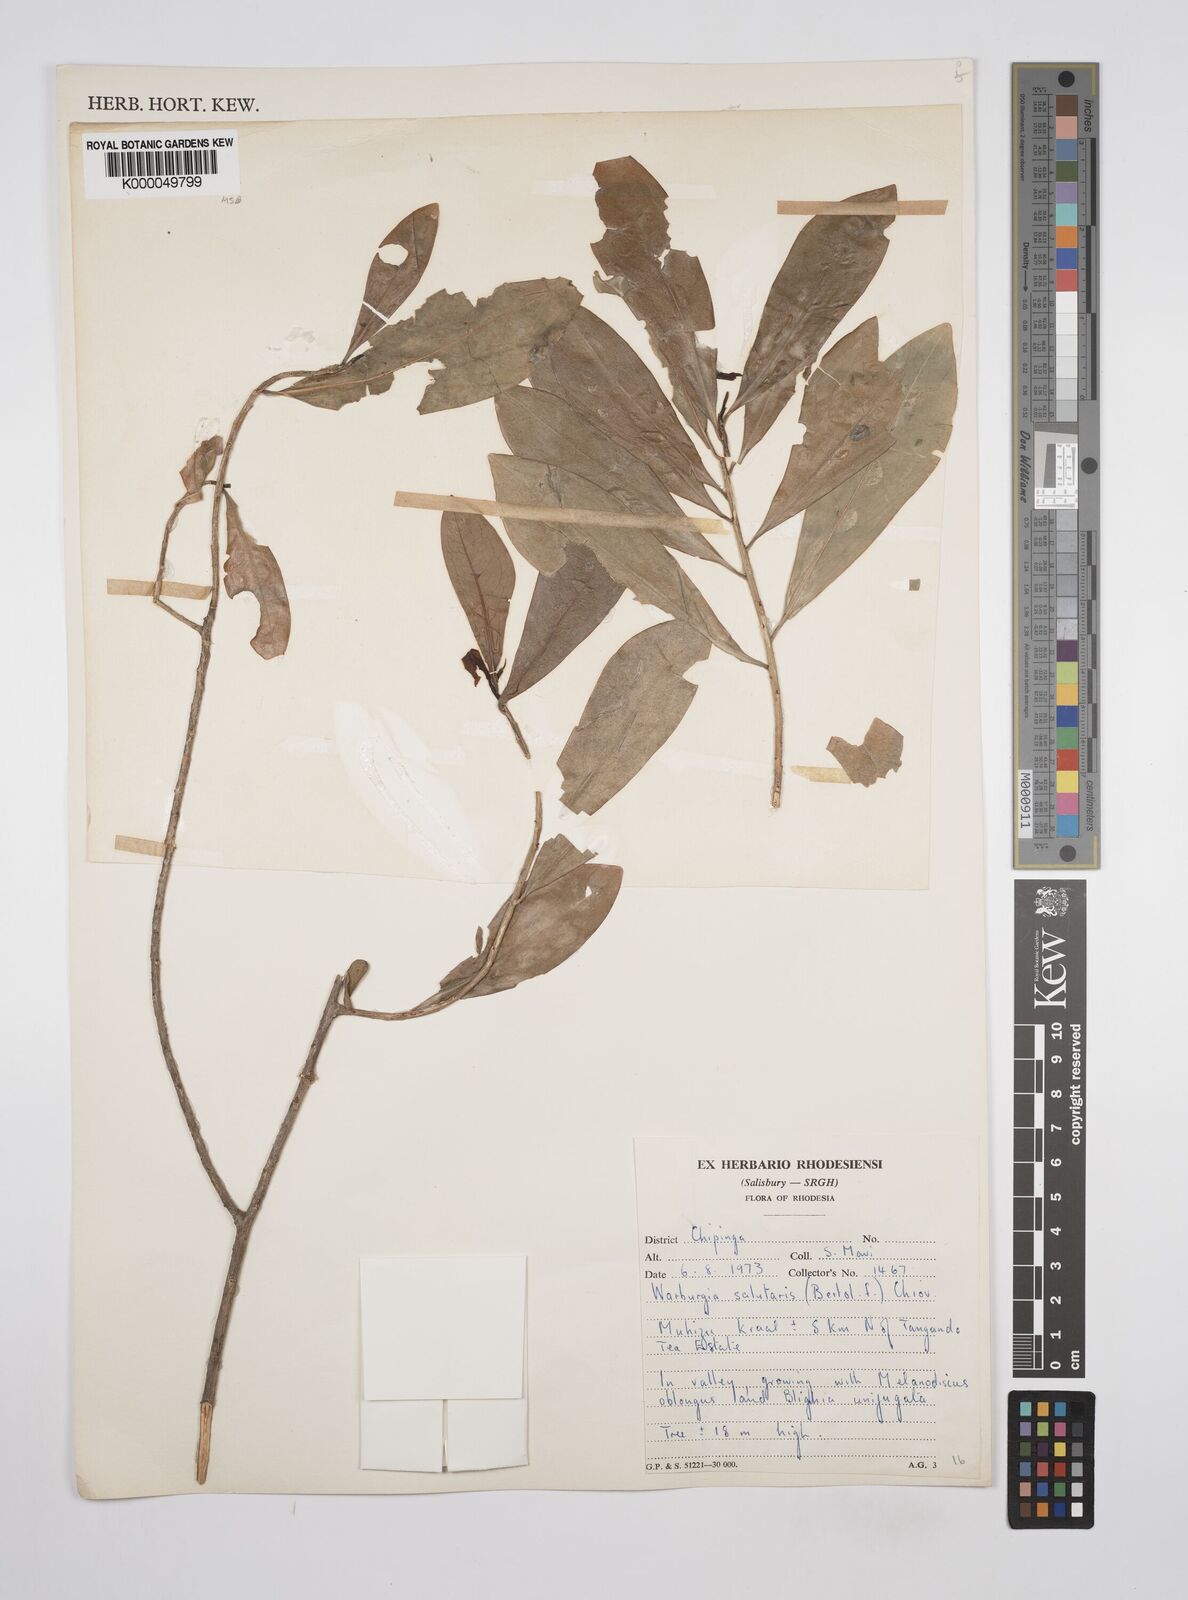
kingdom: Plantae
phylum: Tracheophyta
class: Magnoliopsida
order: Canellales
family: Canellaceae
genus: Warburgia
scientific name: Warburgia salutaris
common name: Pepper bark tree
